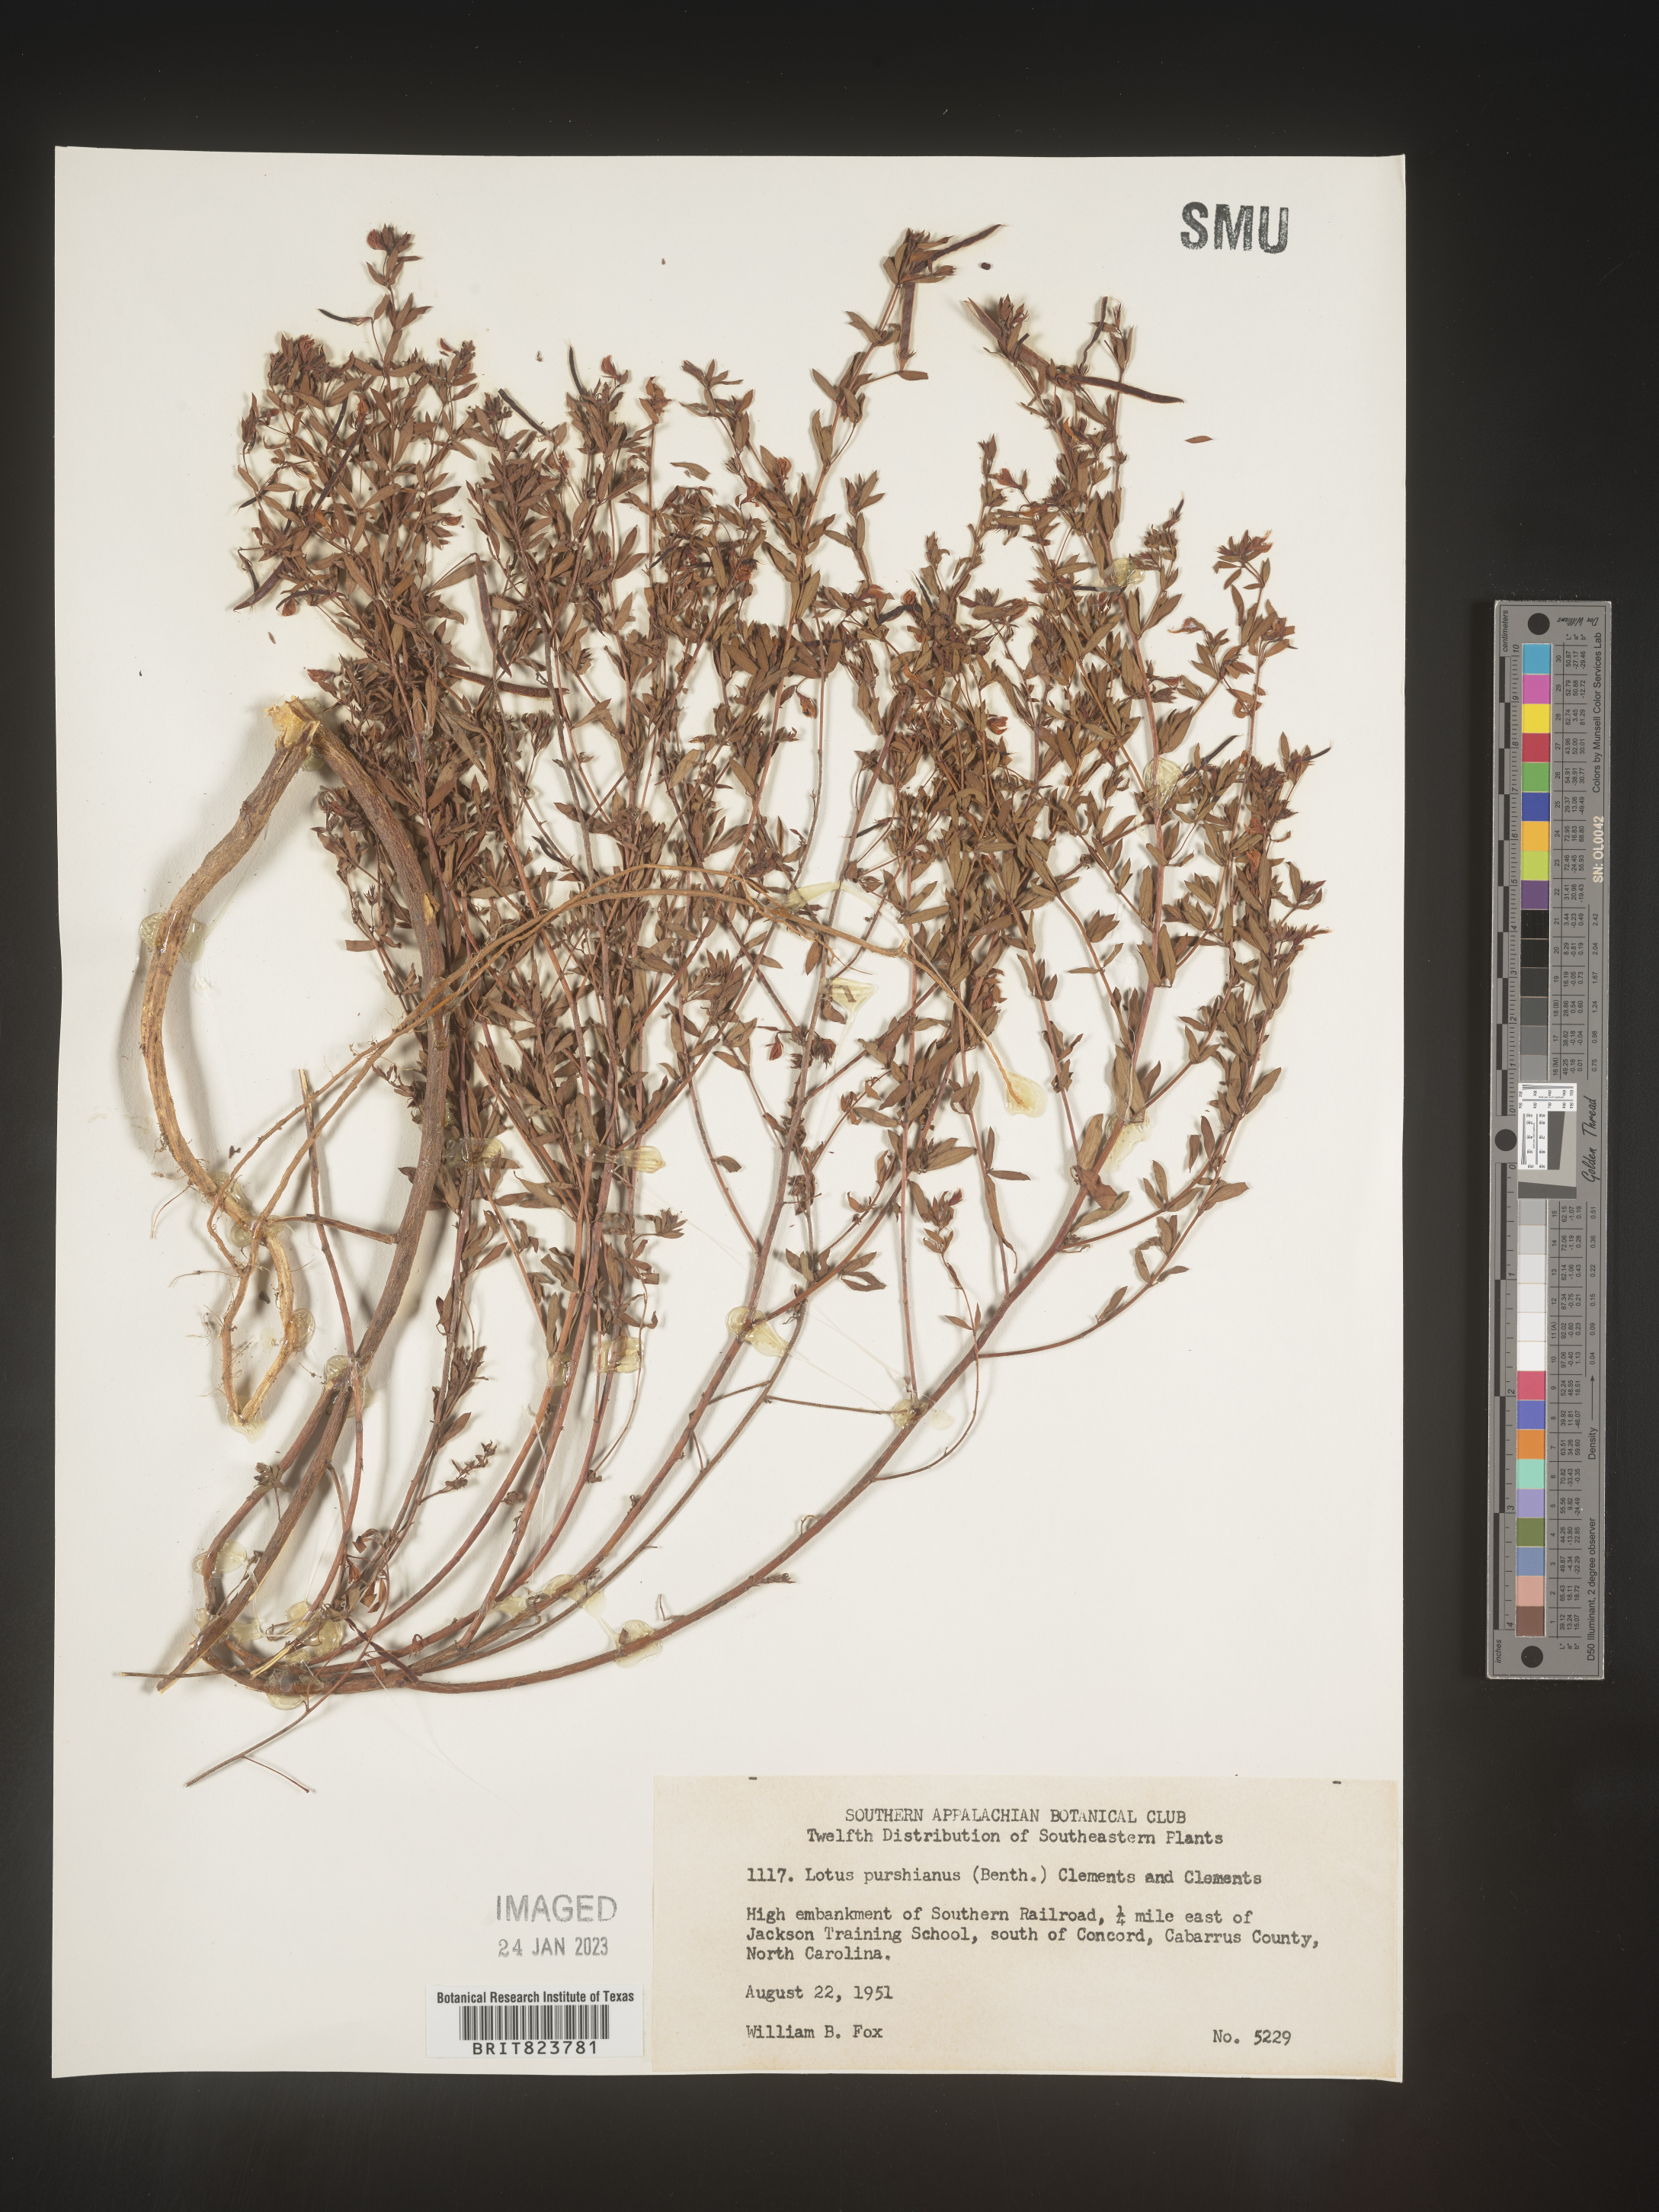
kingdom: Plantae
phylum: Tracheophyta
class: Magnoliopsida
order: Fabales
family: Fabaceae
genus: Acmispon
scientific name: Acmispon americanus
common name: American bird's-foot trefoil
